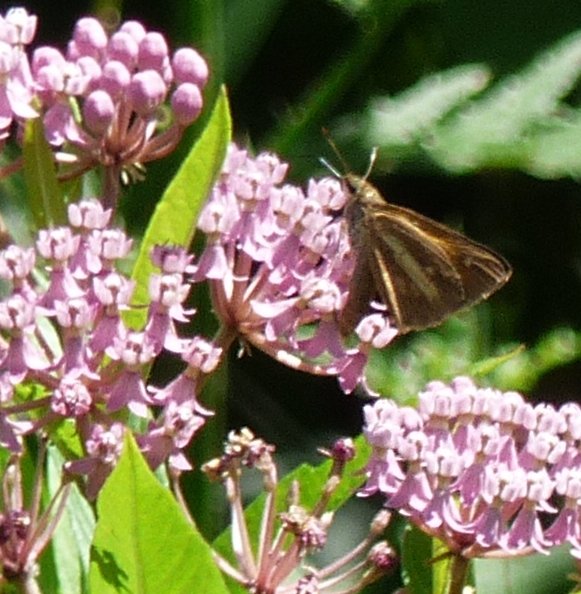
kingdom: Animalia
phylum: Arthropoda
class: Insecta
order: Lepidoptera
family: Hesperiidae
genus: Poanes
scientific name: Poanes viator
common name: Broad-winged Skipper
